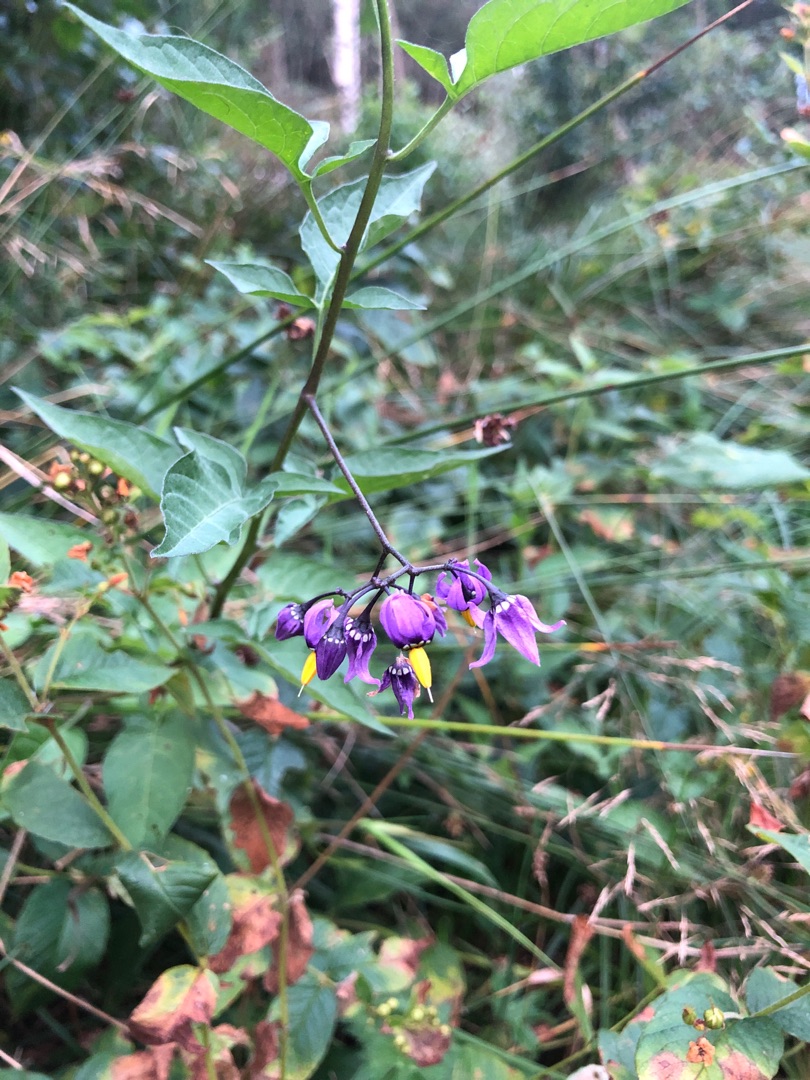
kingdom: Plantae
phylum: Tracheophyta
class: Magnoliopsida
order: Solanales
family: Solanaceae
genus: Solanum
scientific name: Solanum dulcamara
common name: Bittersød natskygge
